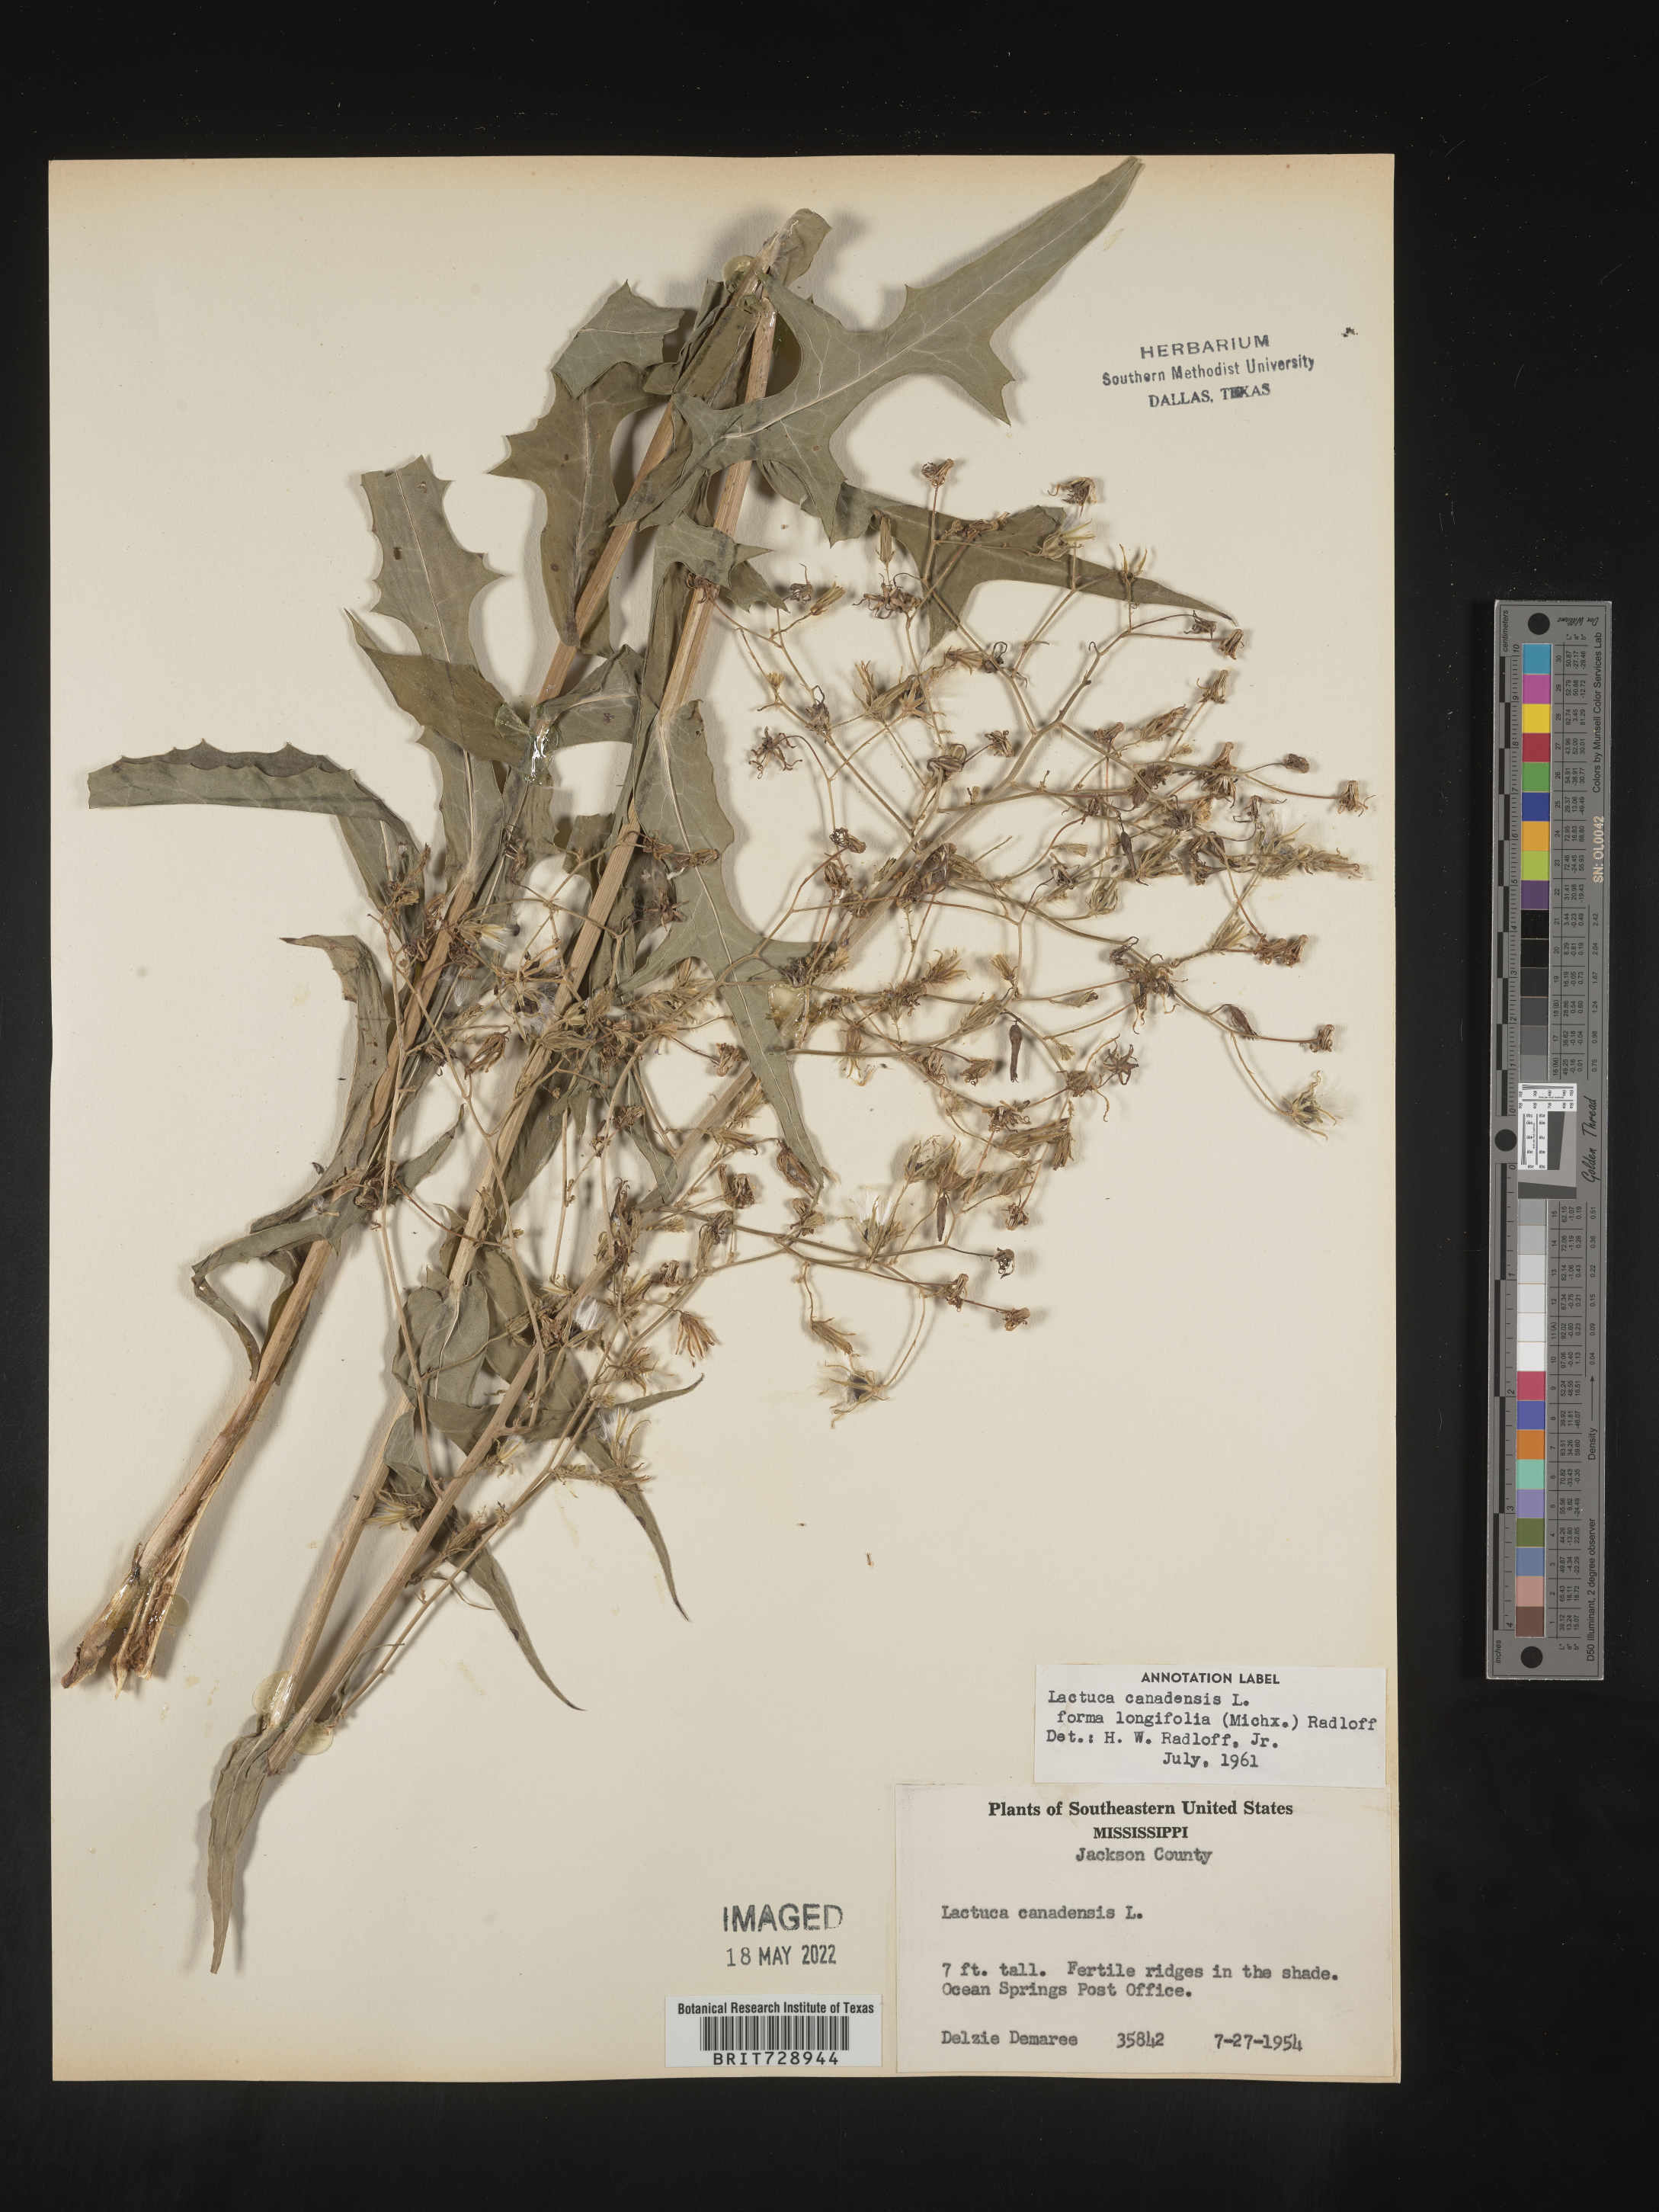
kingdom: Plantae
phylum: Tracheophyta
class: Magnoliopsida
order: Asterales
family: Asteraceae
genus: Lactuca
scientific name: Lactuca canadensis
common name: Canada lettuce
